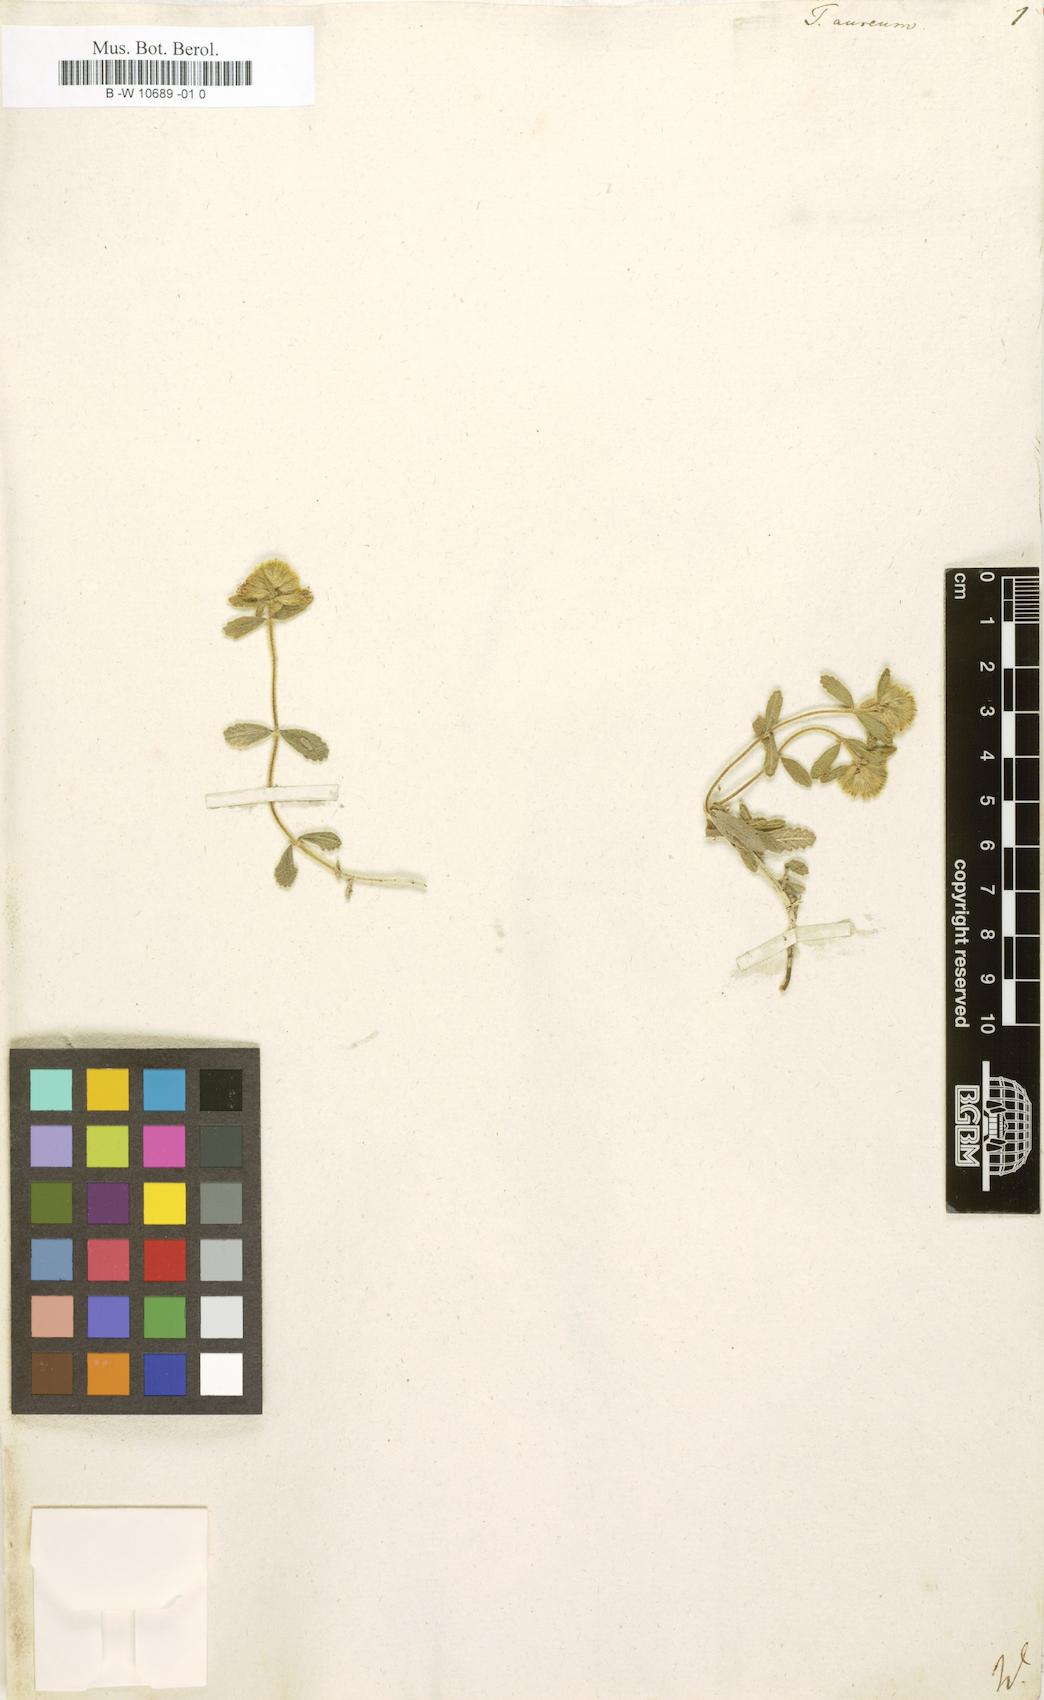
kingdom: Plantae
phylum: Tracheophyta
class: Magnoliopsida
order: Lamiales
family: Lamiaceae
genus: Teucrium
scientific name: Teucrium aureum
